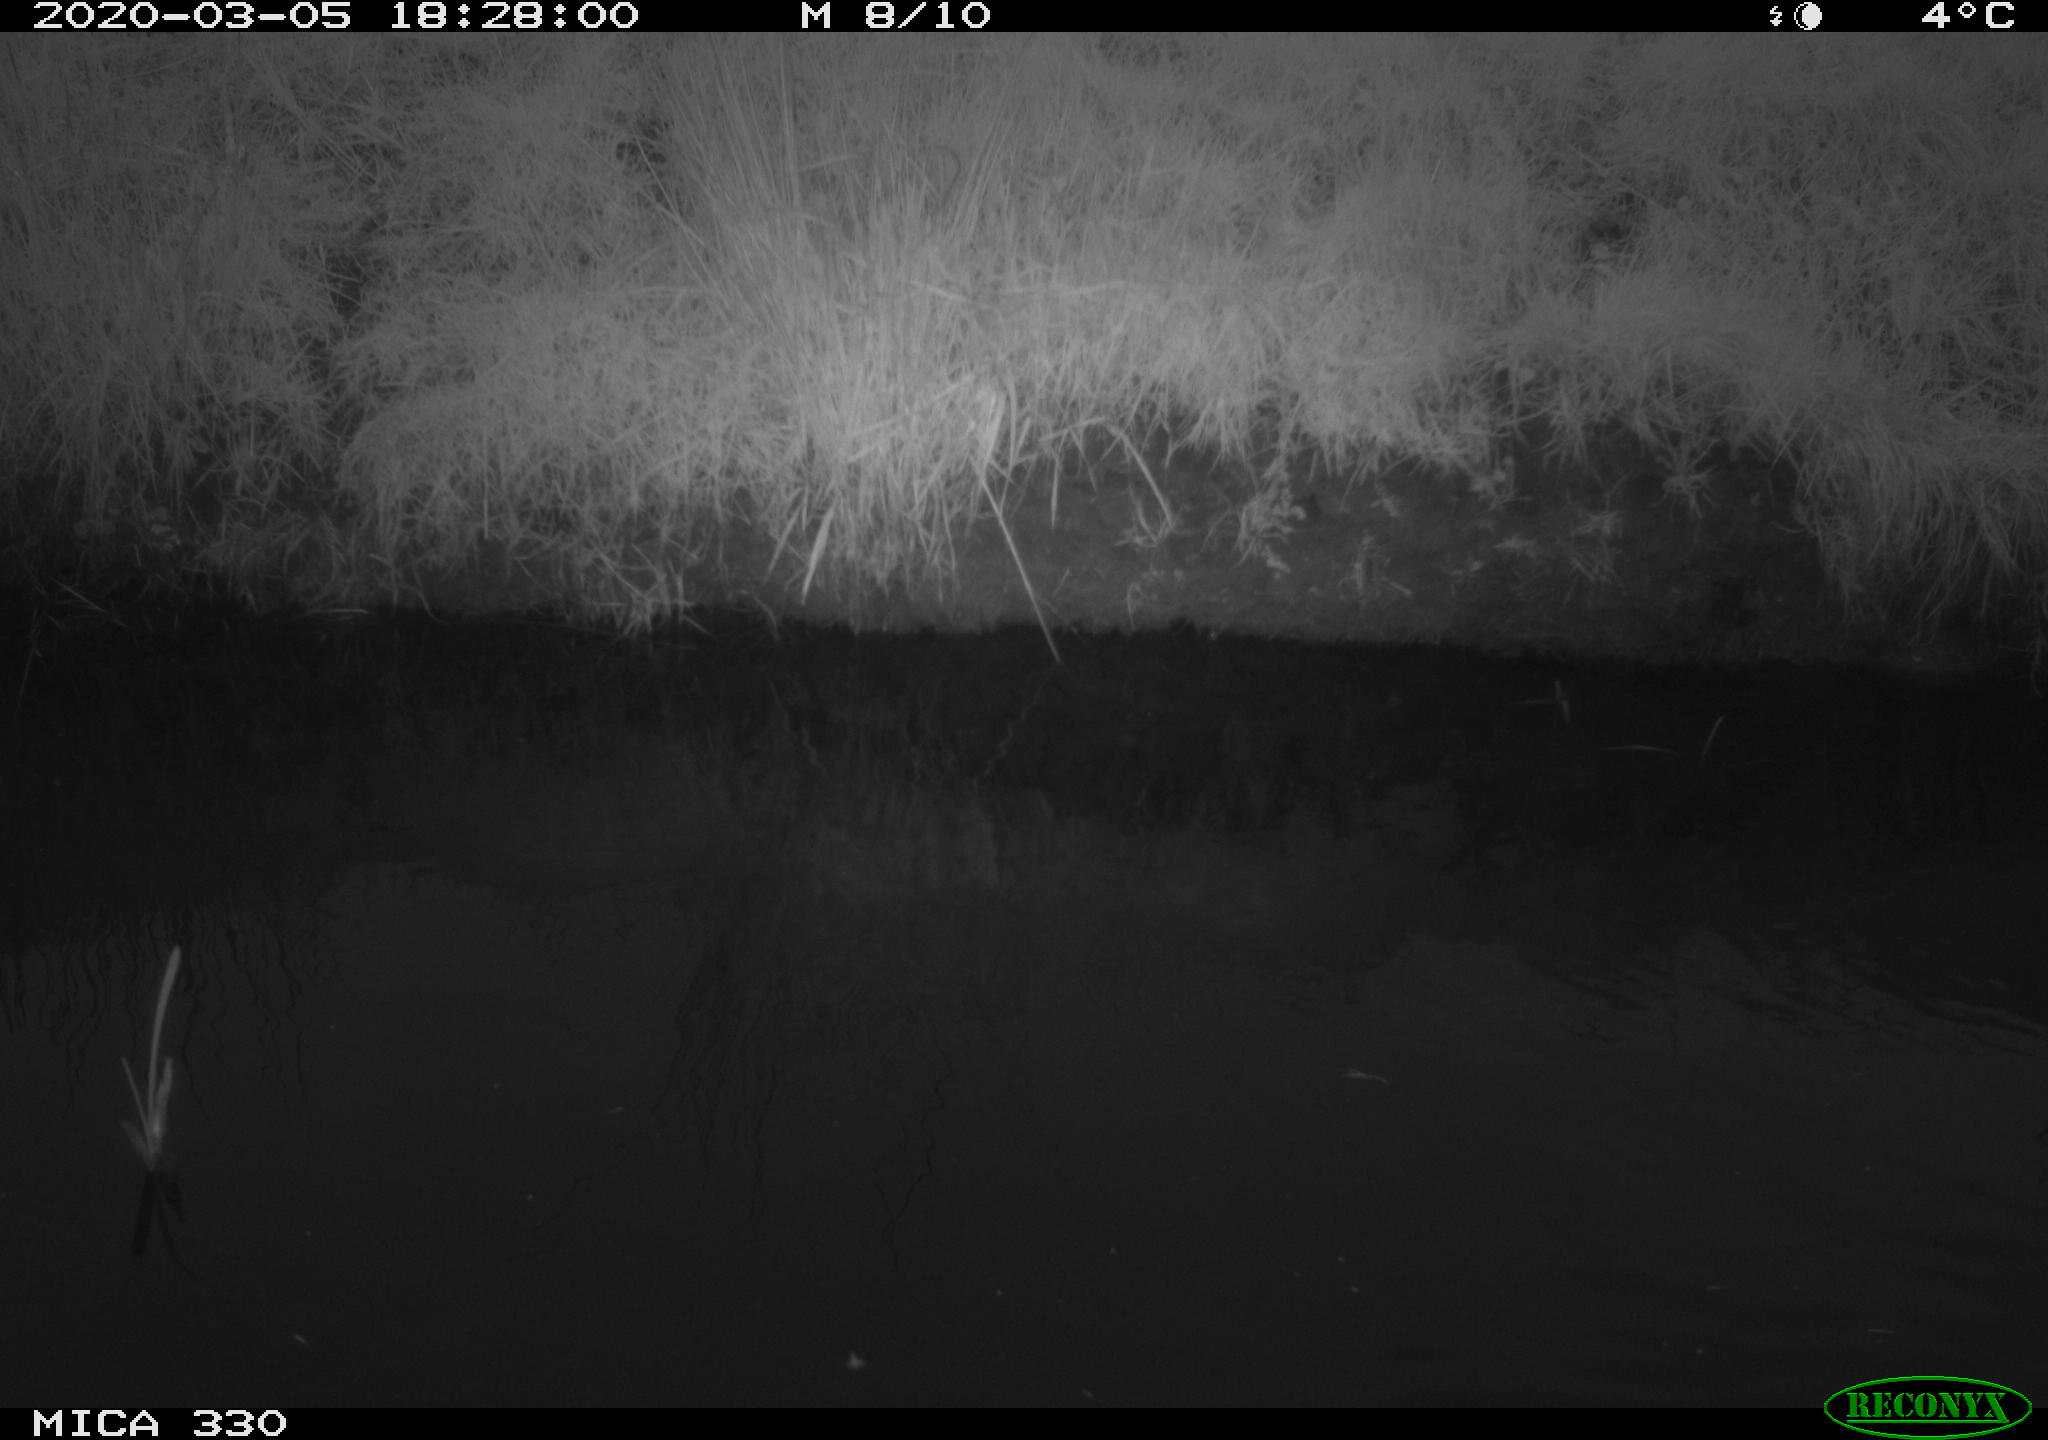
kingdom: Animalia
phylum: Chordata
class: Aves
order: Anseriformes
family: Anatidae
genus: Anas
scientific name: Anas platyrhynchos
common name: Mallard
